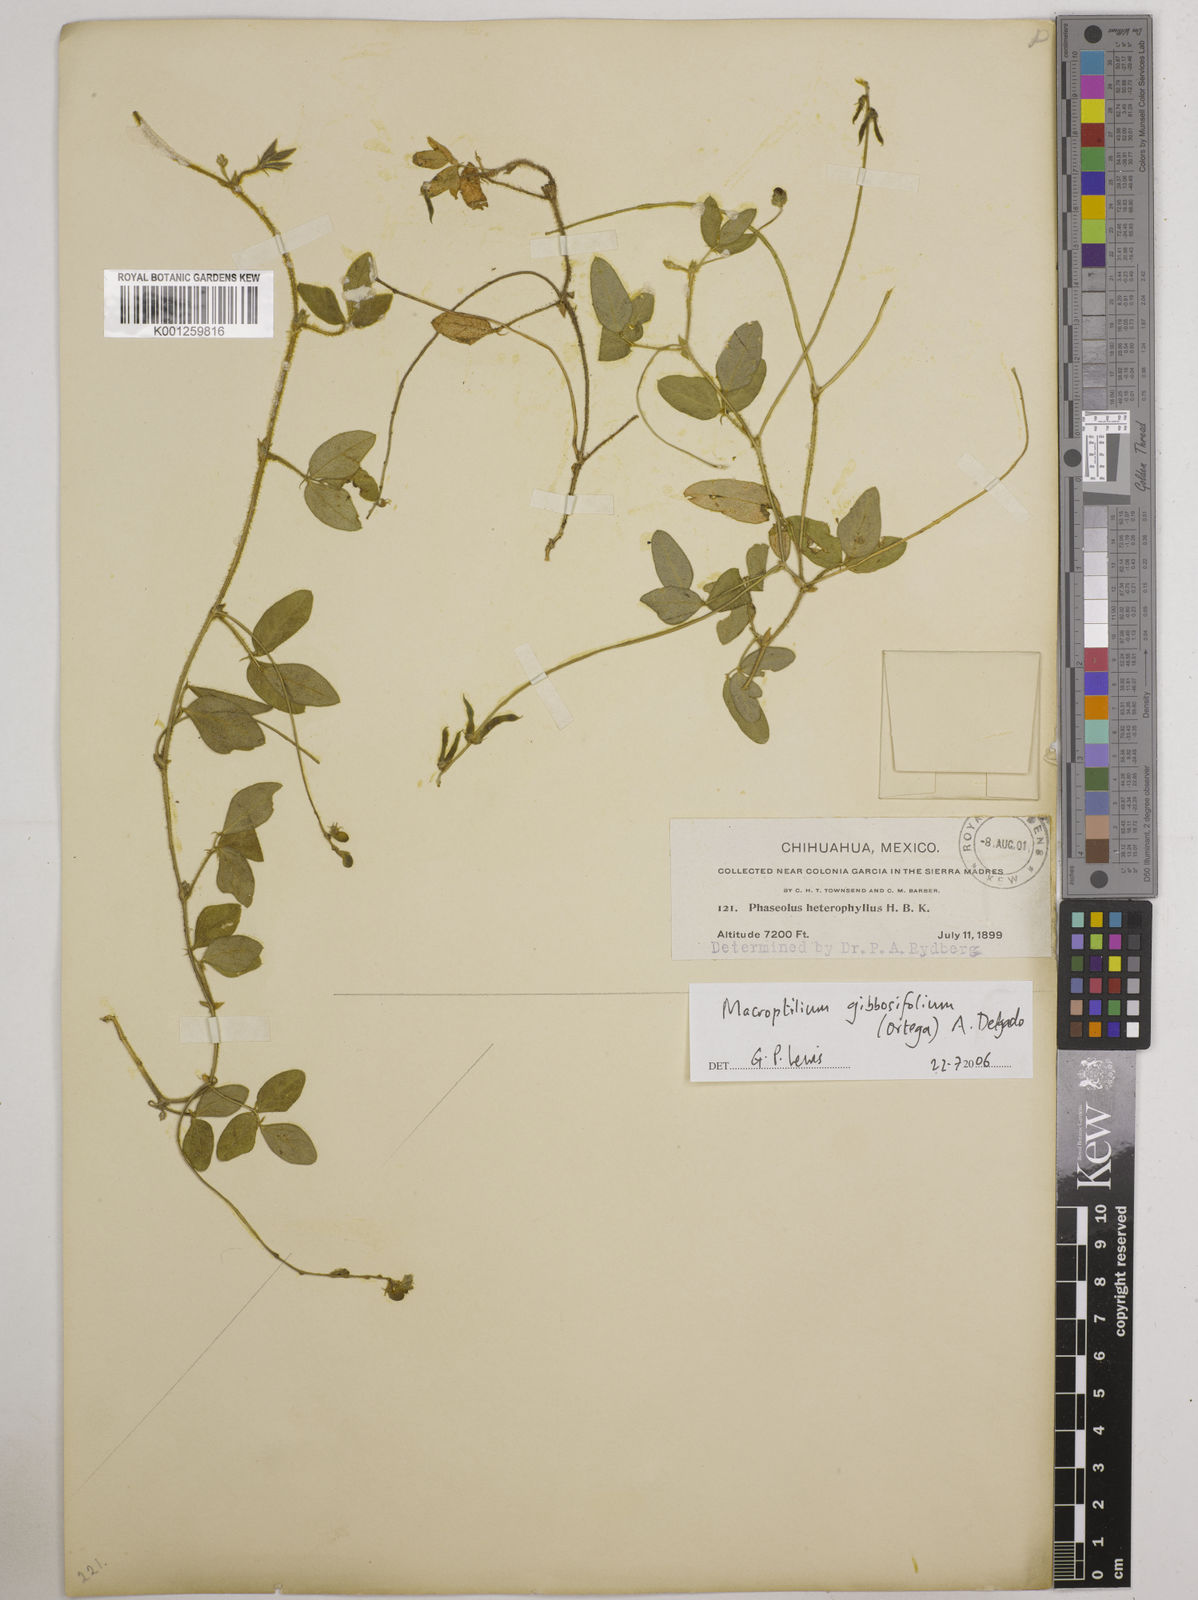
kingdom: Plantae
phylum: Tracheophyta
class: Magnoliopsida
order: Fabales
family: Fabaceae
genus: Macroptilium
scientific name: Macroptilium gibbosifolium
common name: Variableleaf bushbean
